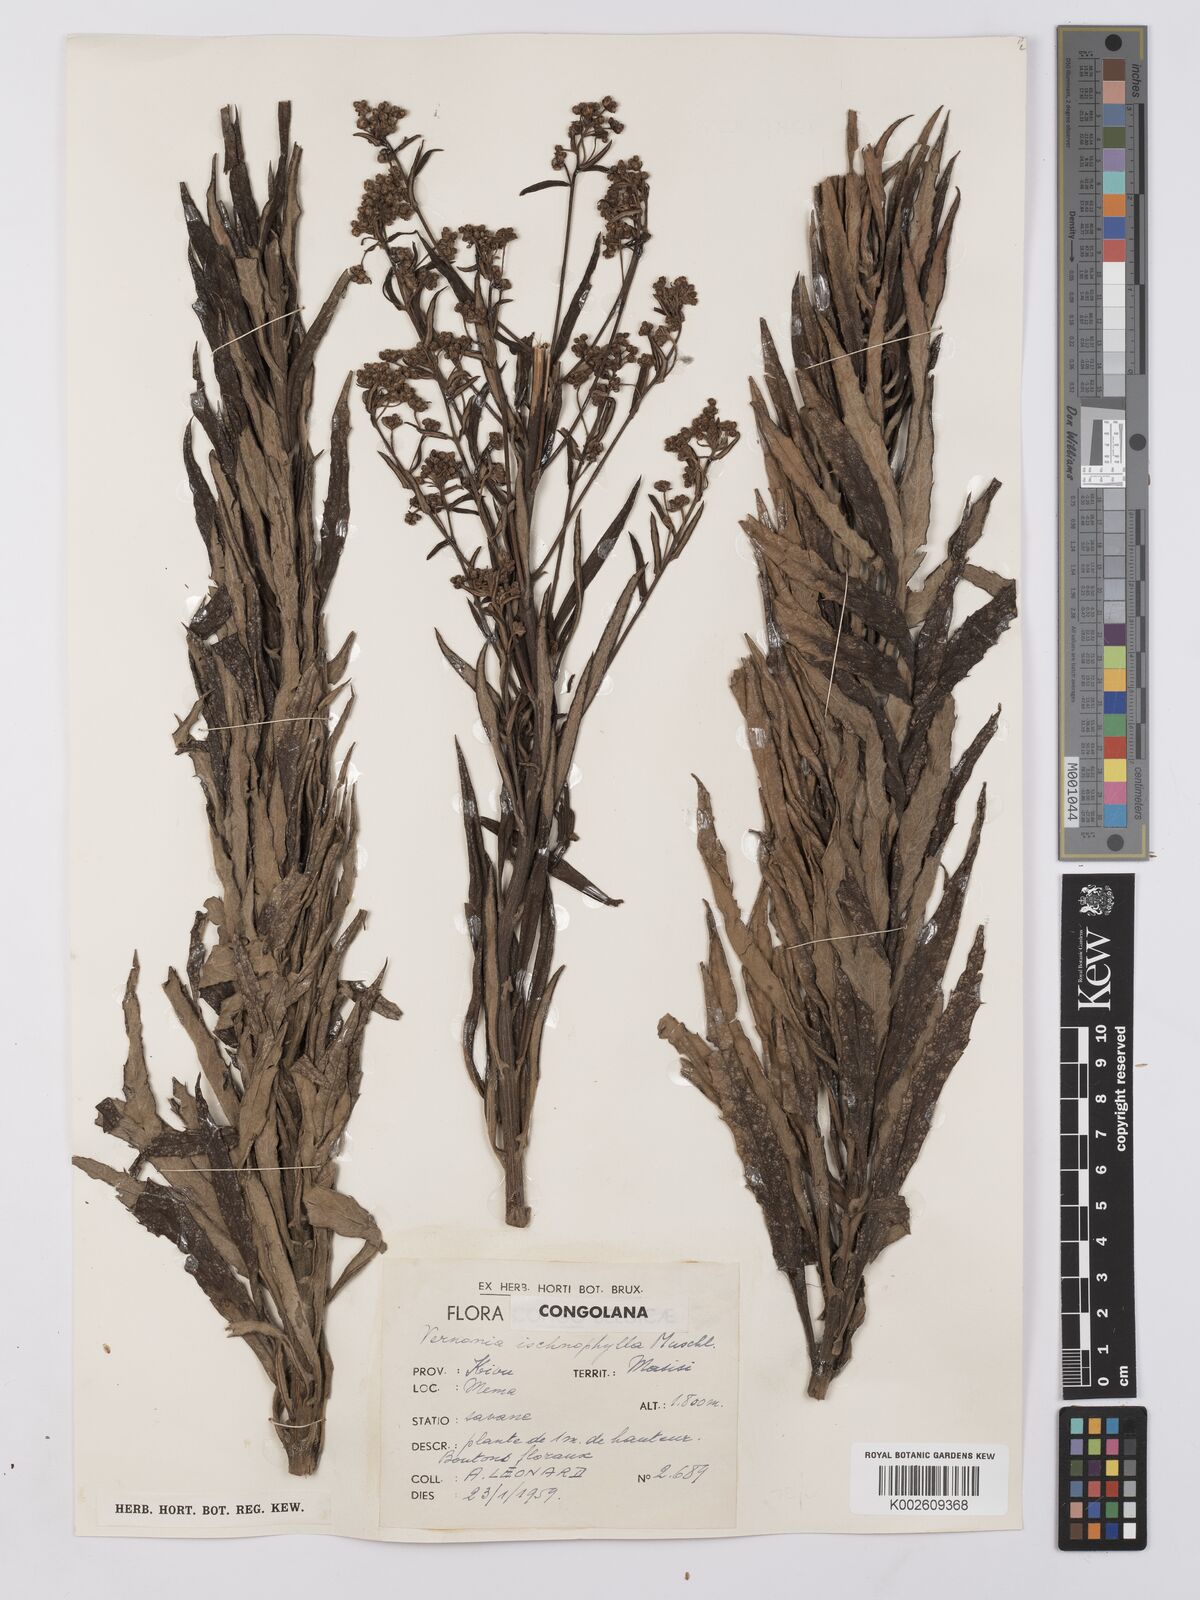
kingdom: Plantae
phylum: Tracheophyta
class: Magnoliopsida
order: Asterales
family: Asteraceae
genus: Vernonia
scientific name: Vernonia ischnophylla
